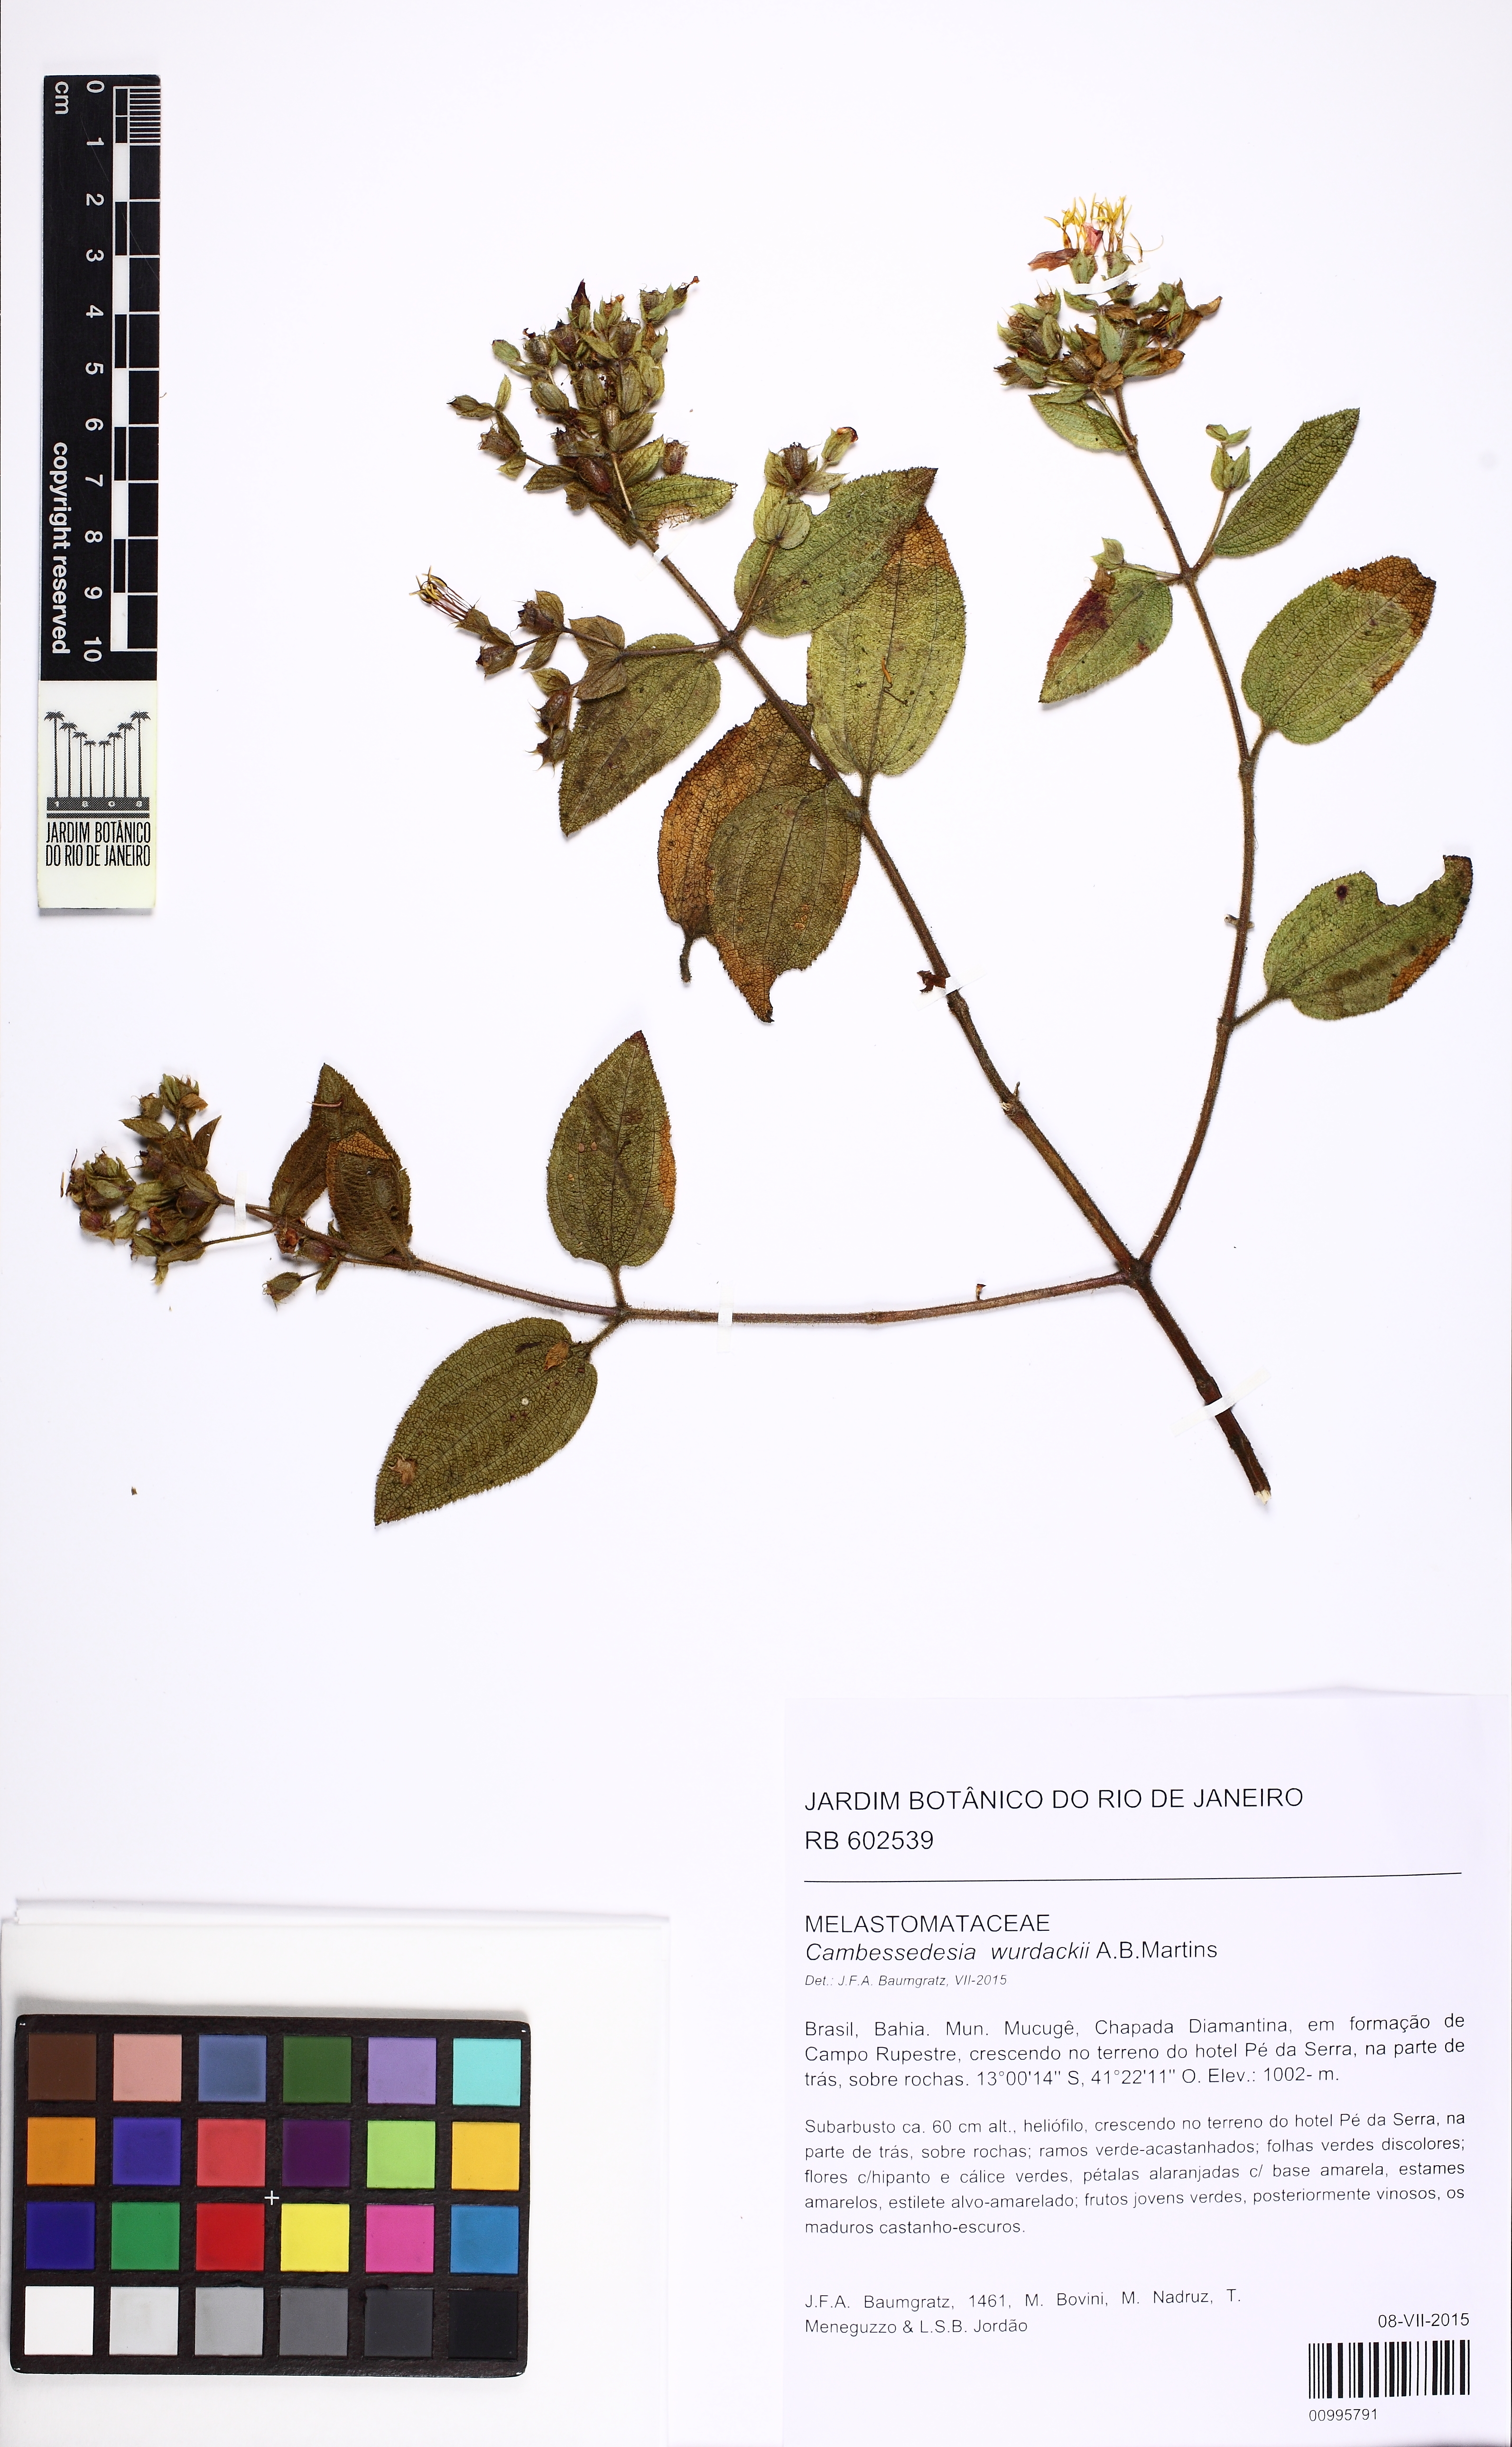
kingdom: Plantae
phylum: Tracheophyta
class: Magnoliopsida
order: Myrtales
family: Melastomataceae
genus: Cambessedesia
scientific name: Cambessedesia wurdackii
